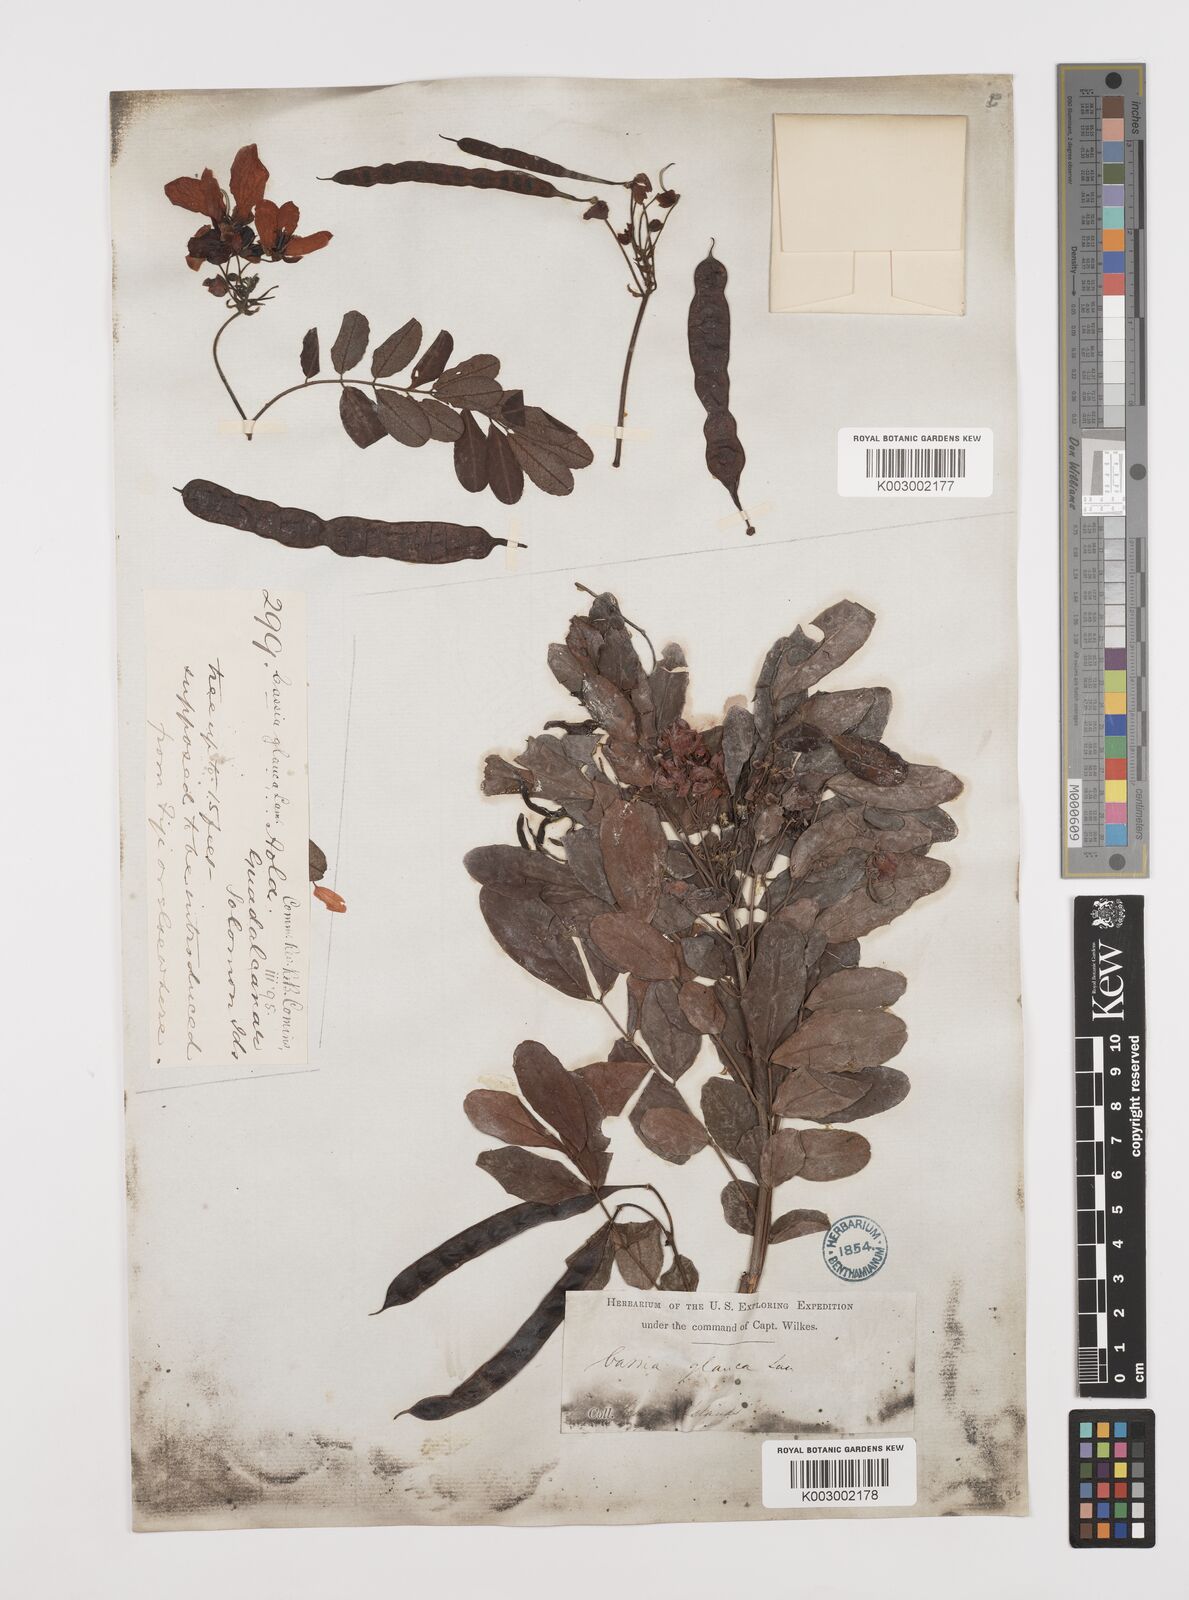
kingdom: Plantae
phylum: Tracheophyta
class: Magnoliopsida
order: Fabales
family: Fabaceae
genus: Senna
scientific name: Senna surattensis
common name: Glossy shower
